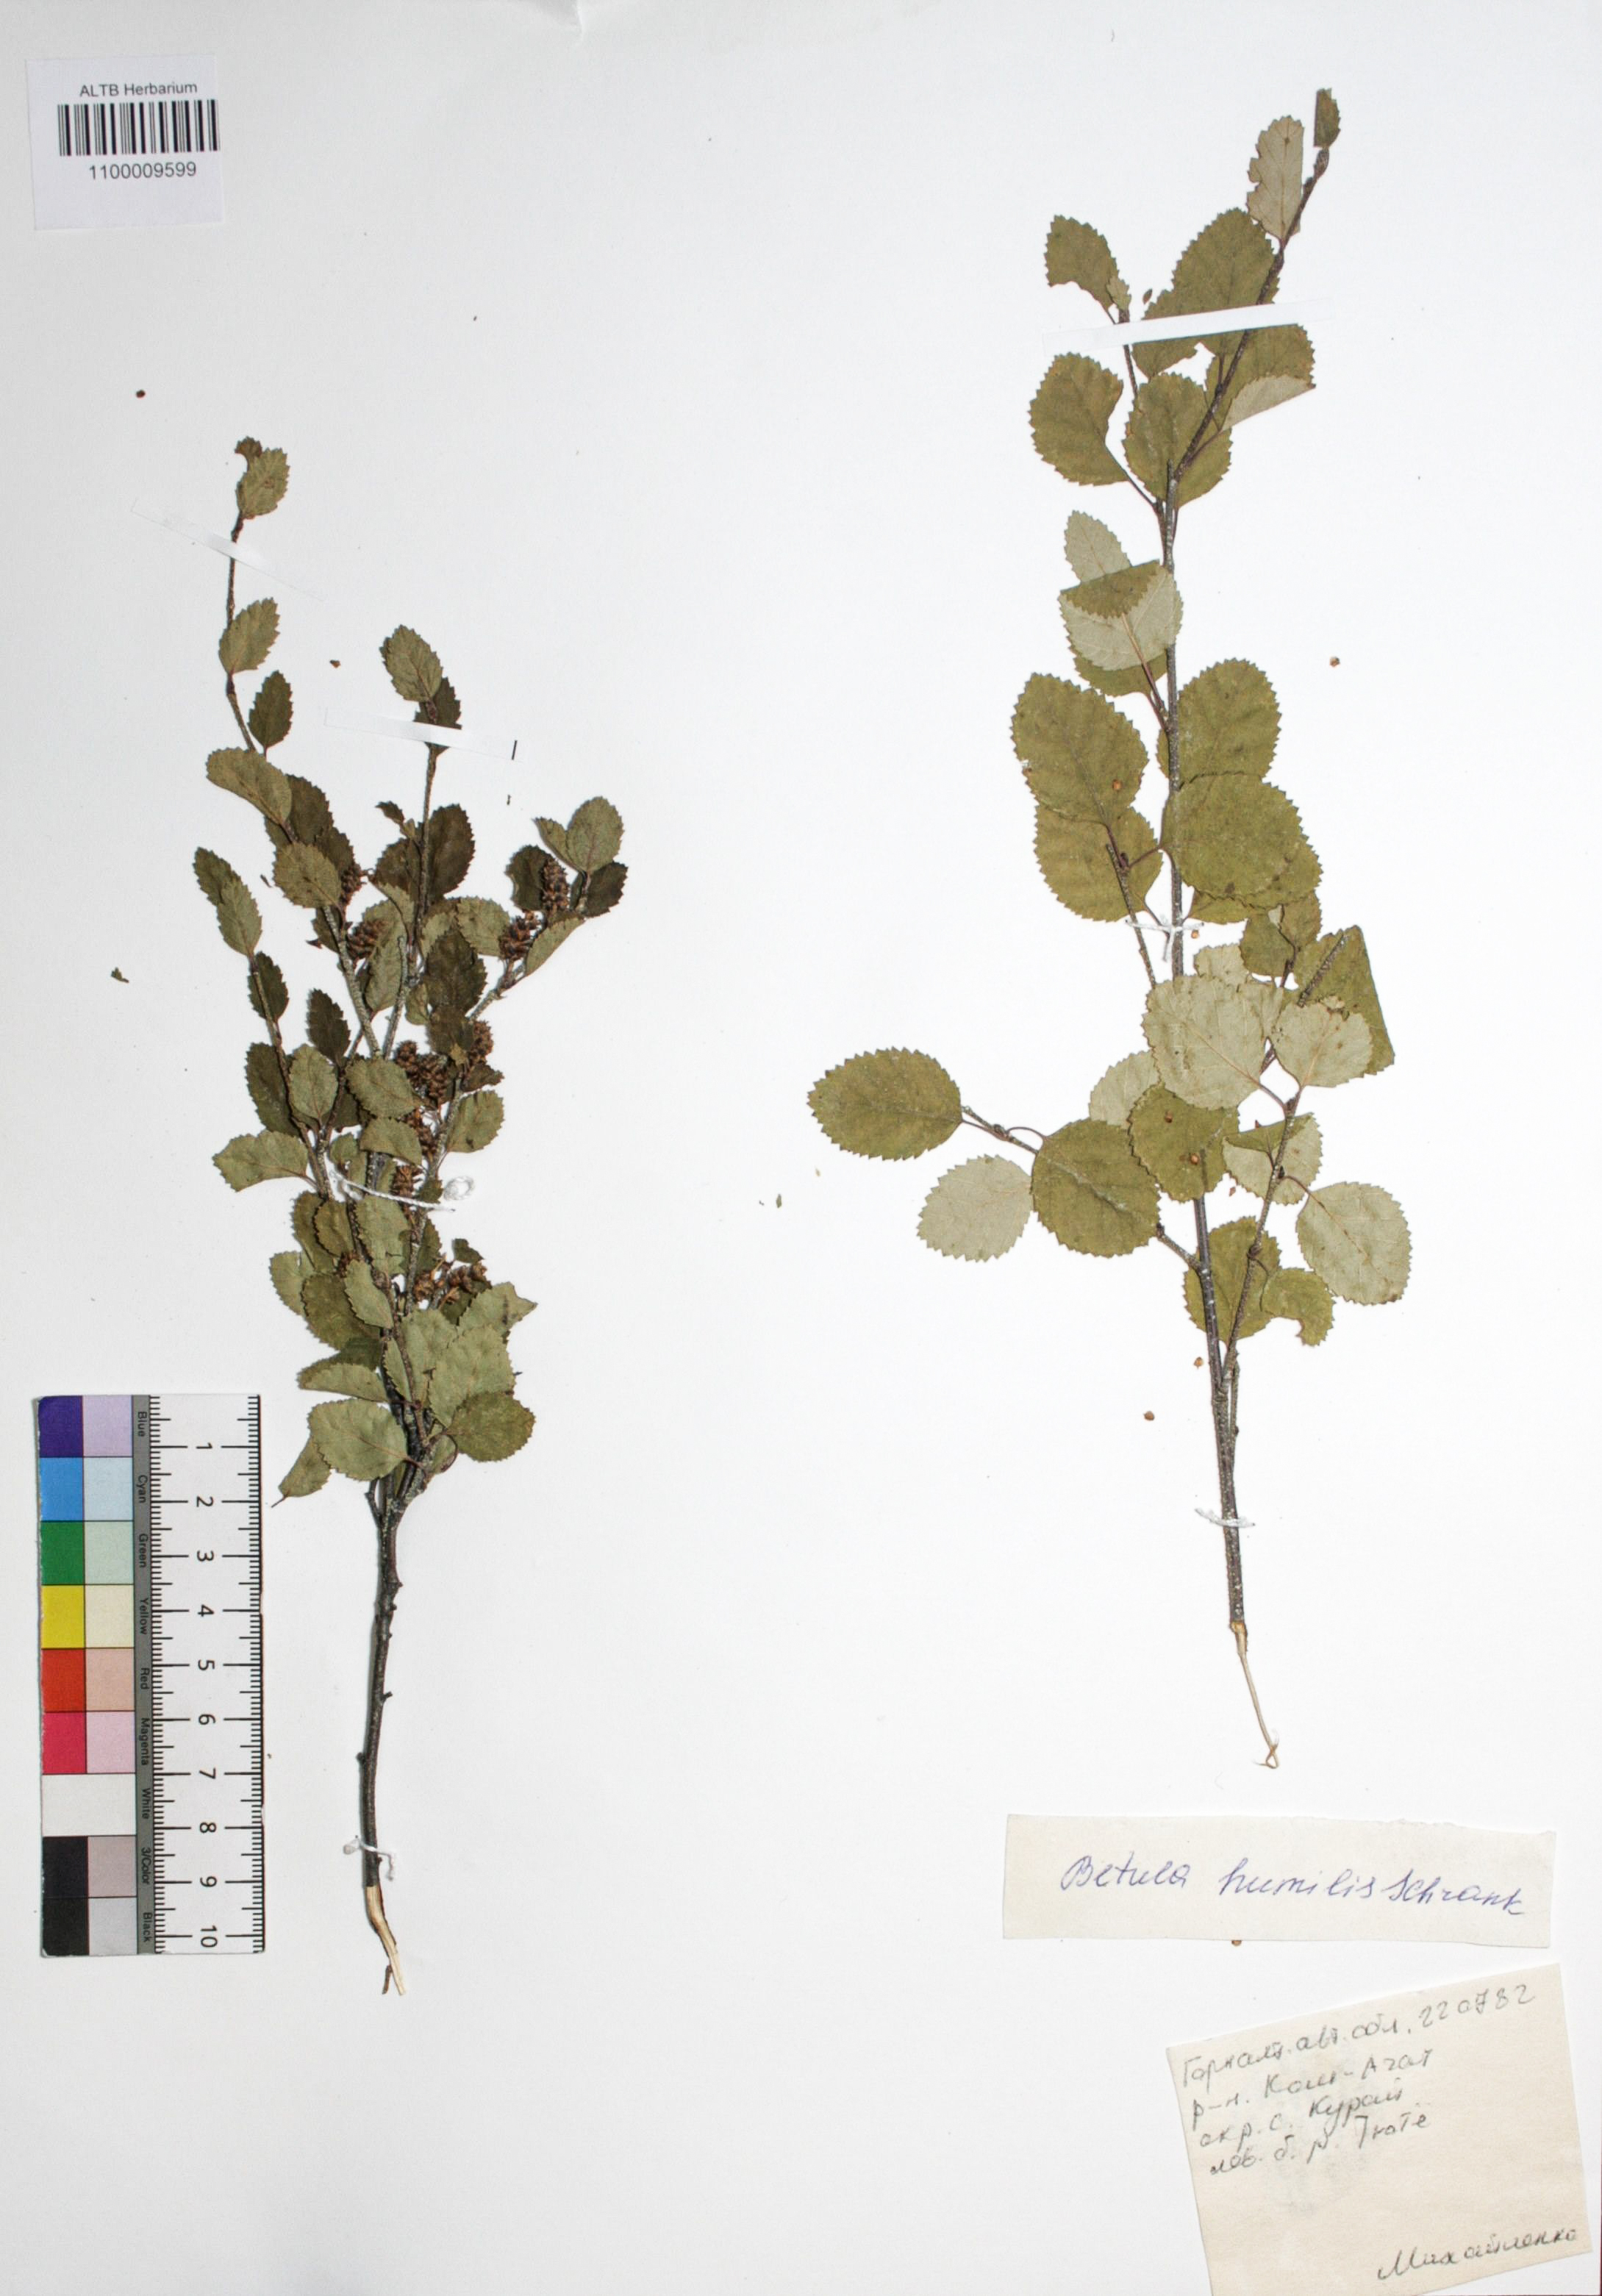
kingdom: Plantae
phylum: Tracheophyta
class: Magnoliopsida
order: Fagales
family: Betulaceae
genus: Betula
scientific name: Betula humilis
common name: Shrubby birch
